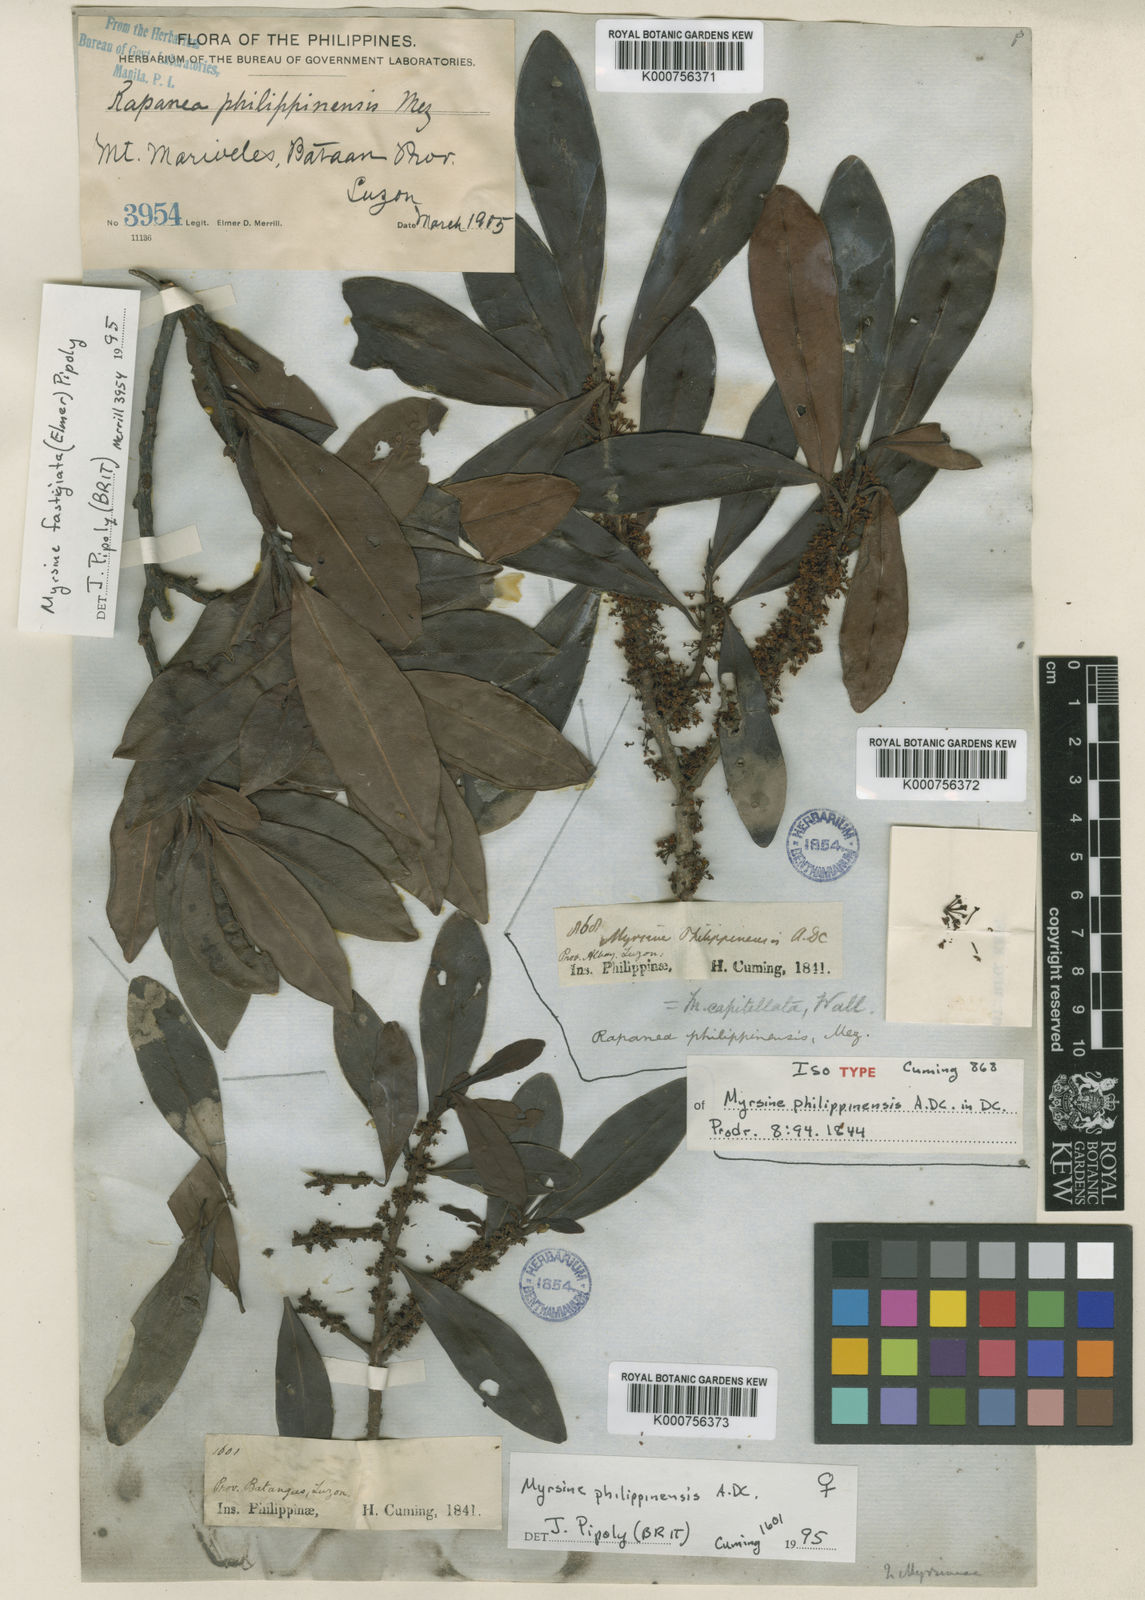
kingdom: Plantae
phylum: Tracheophyta
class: Magnoliopsida
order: Ericales
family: Primulaceae
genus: Myrsine
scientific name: Myrsine capitellata
